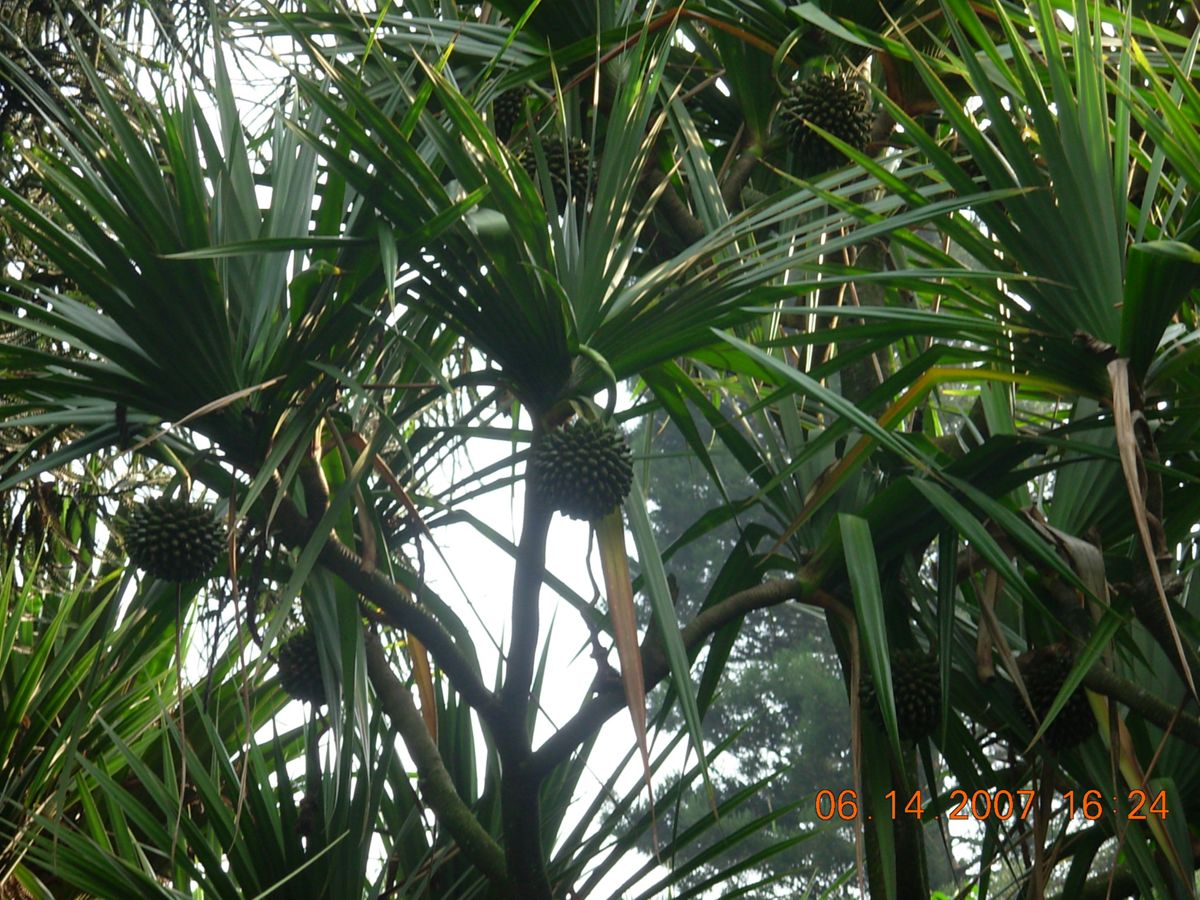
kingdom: Plantae
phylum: Tracheophyta
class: Liliopsida
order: Pandanales
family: Pandanaceae
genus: Pandanus
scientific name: Pandanus utilis
